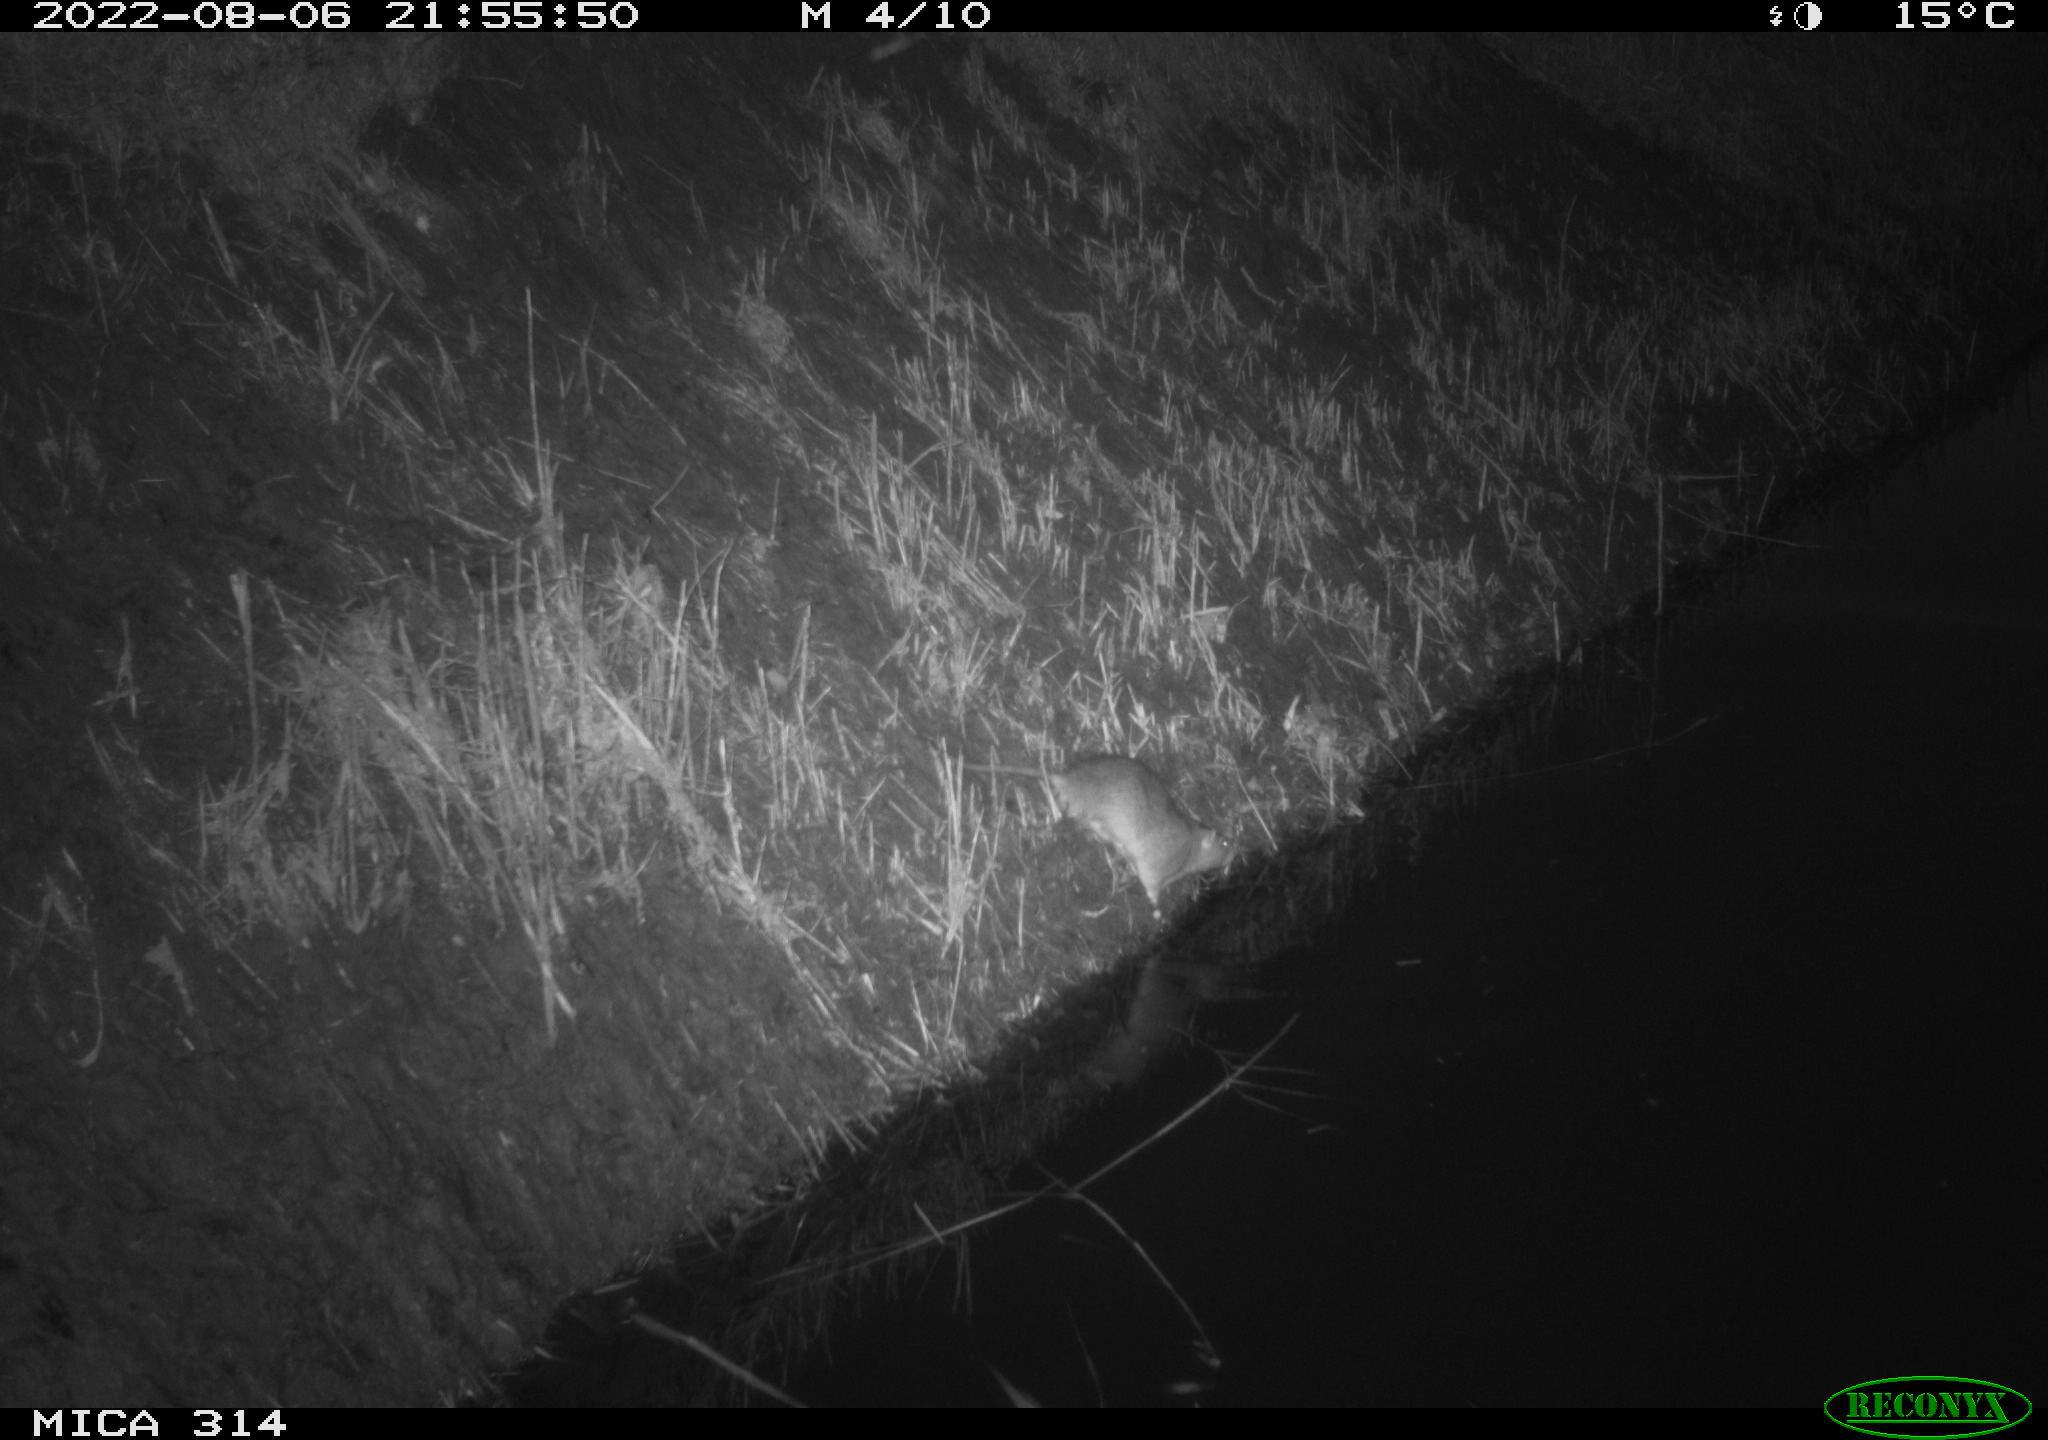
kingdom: Animalia
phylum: Chordata
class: Mammalia
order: Rodentia
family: Muridae
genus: Rattus
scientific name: Rattus norvegicus
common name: Brown rat
